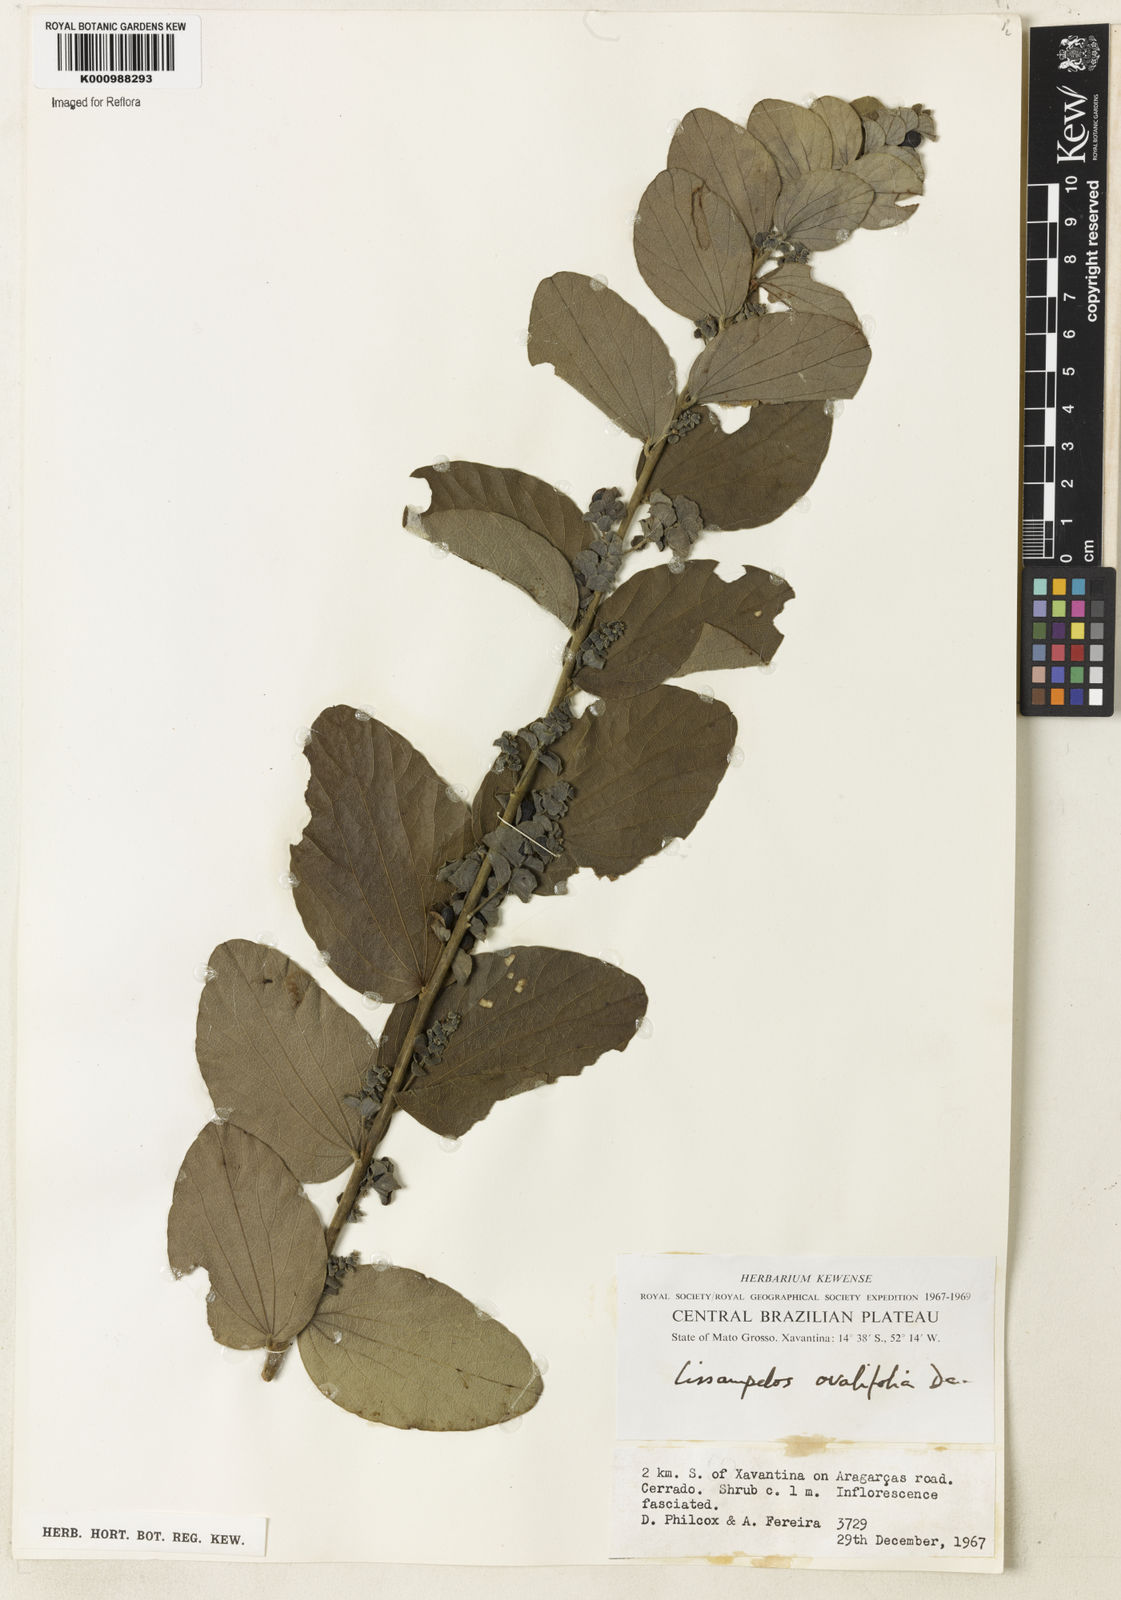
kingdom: Plantae
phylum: Tracheophyta
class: Magnoliopsida
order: Ranunculales
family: Menispermaceae
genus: Cissampelos
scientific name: Cissampelos ovalifolia
